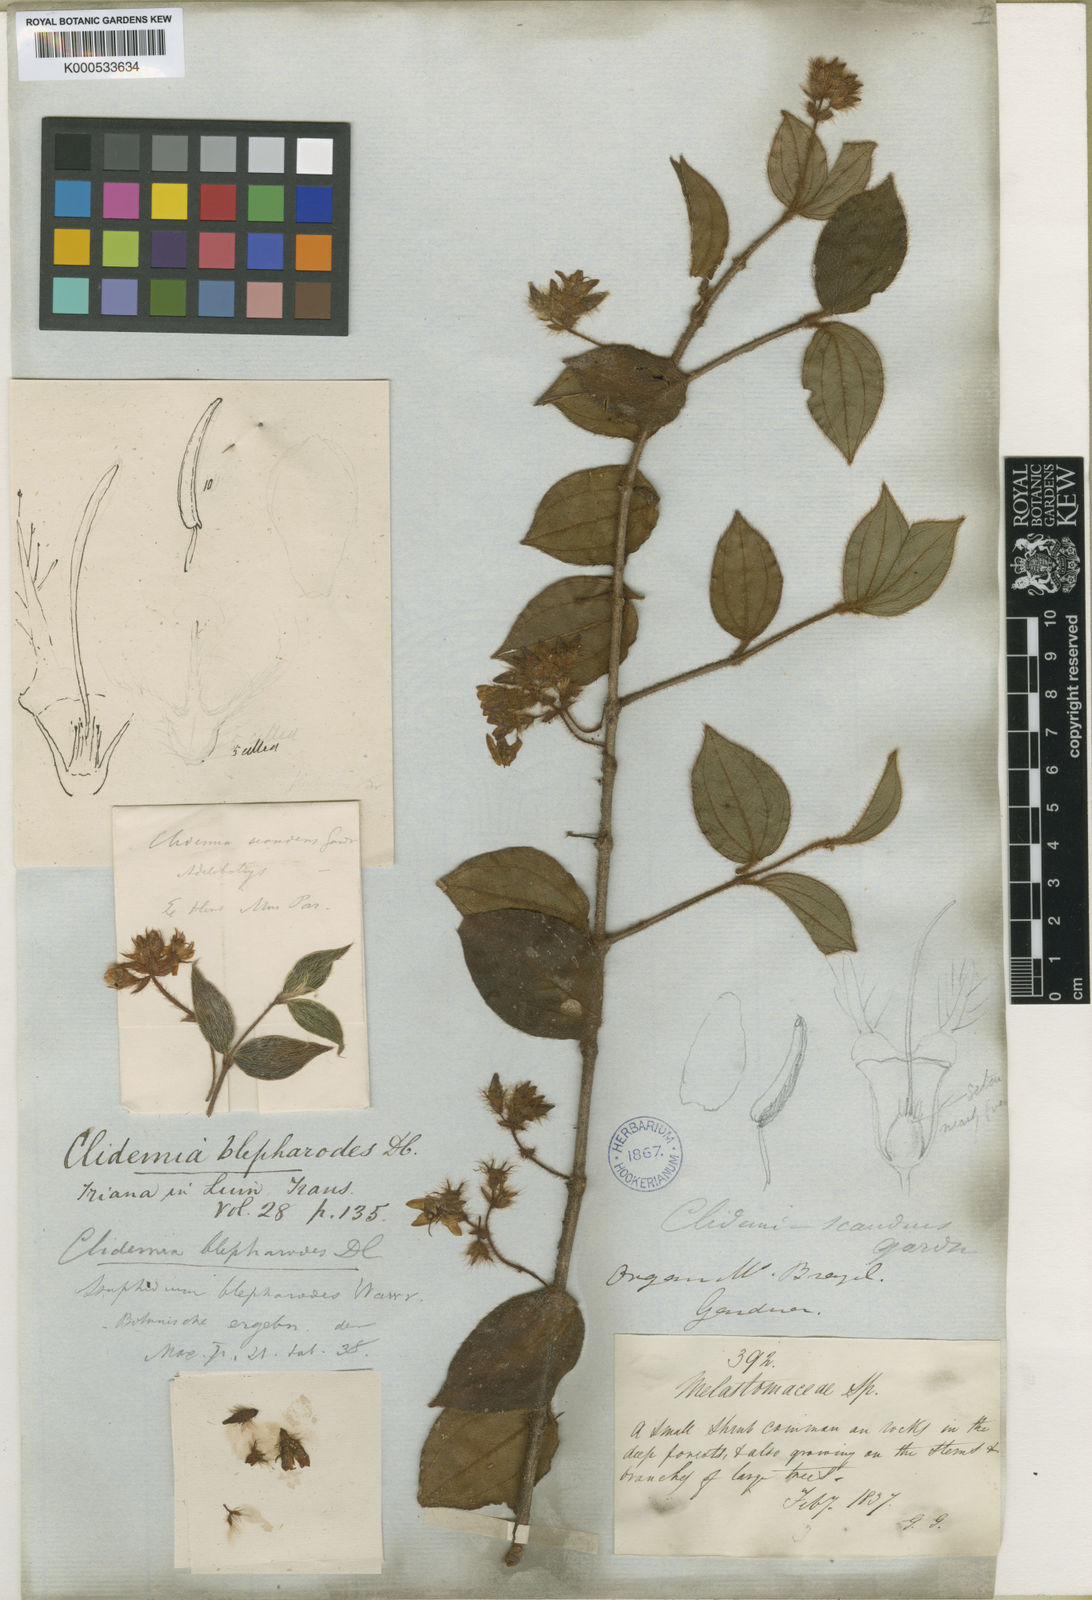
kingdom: Plantae
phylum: Tracheophyta
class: Magnoliopsida
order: Myrtales
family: Melastomataceae
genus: Miconia
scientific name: Miconia blepharodes
